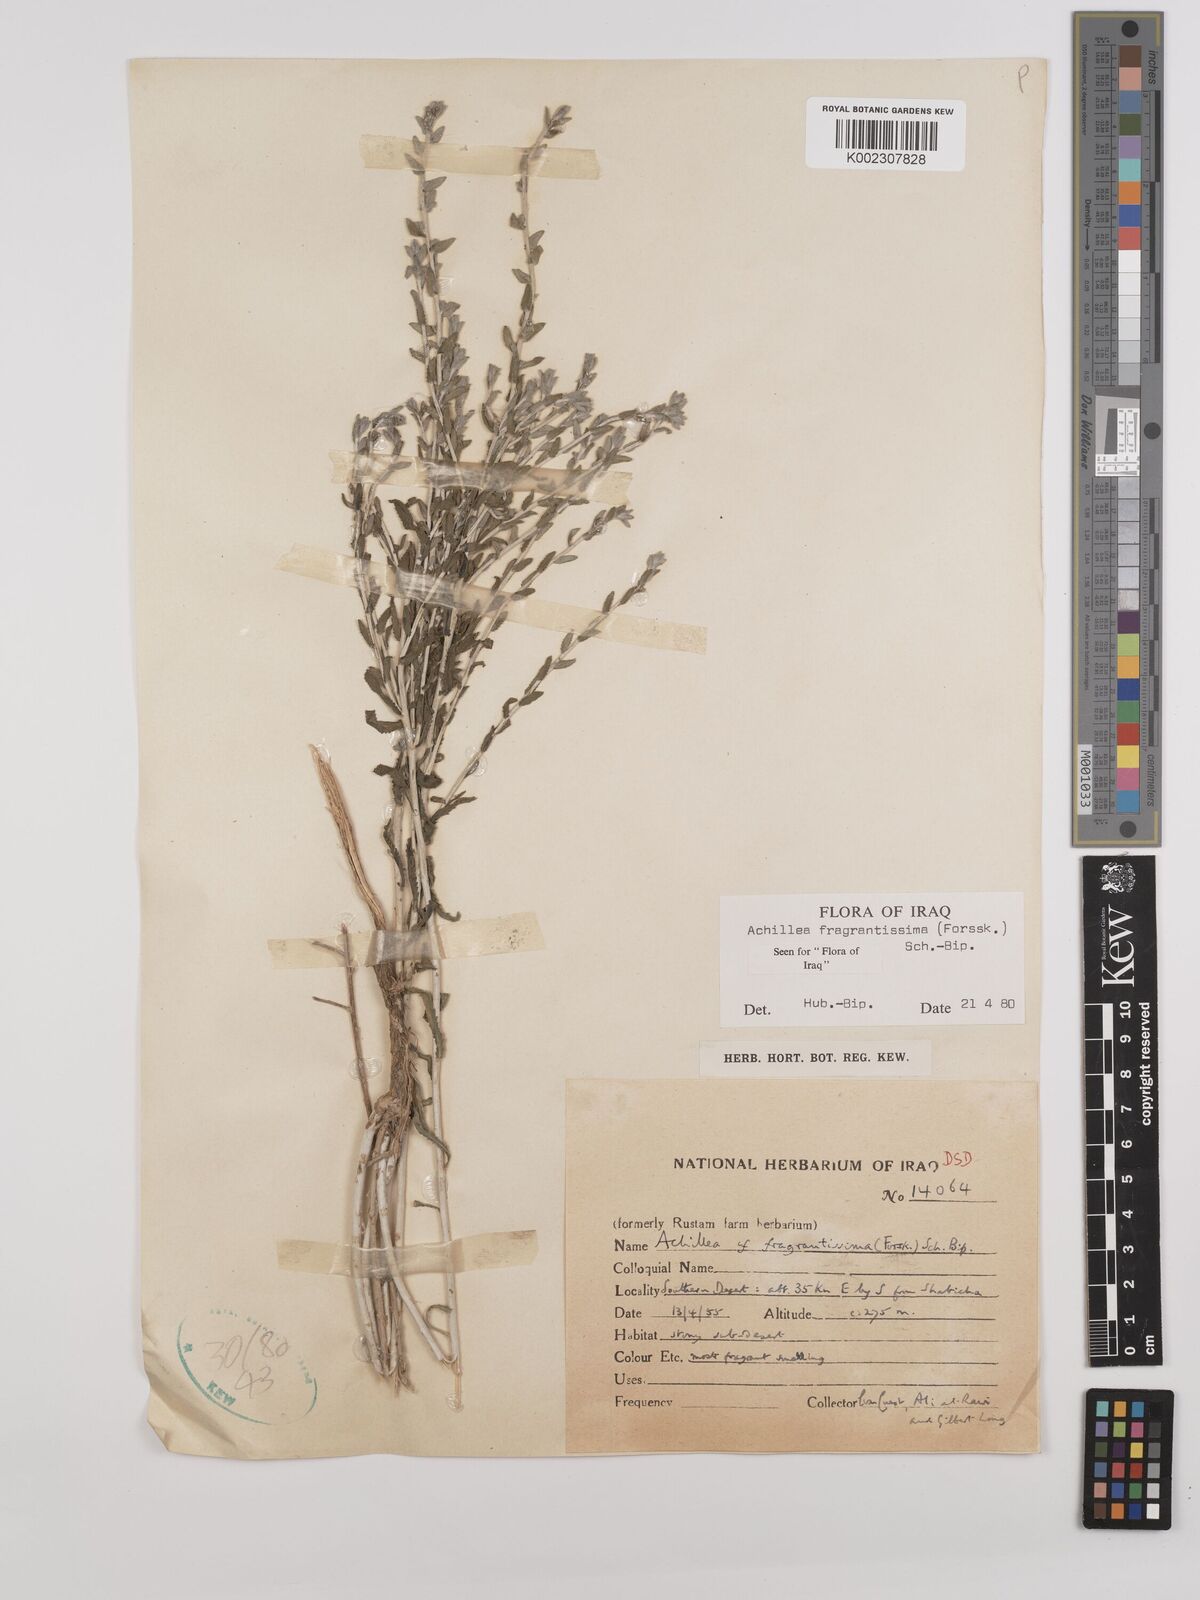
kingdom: Plantae
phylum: Tracheophyta
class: Magnoliopsida
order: Asterales
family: Asteraceae
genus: Achillea
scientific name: Achillea fragrantissima
